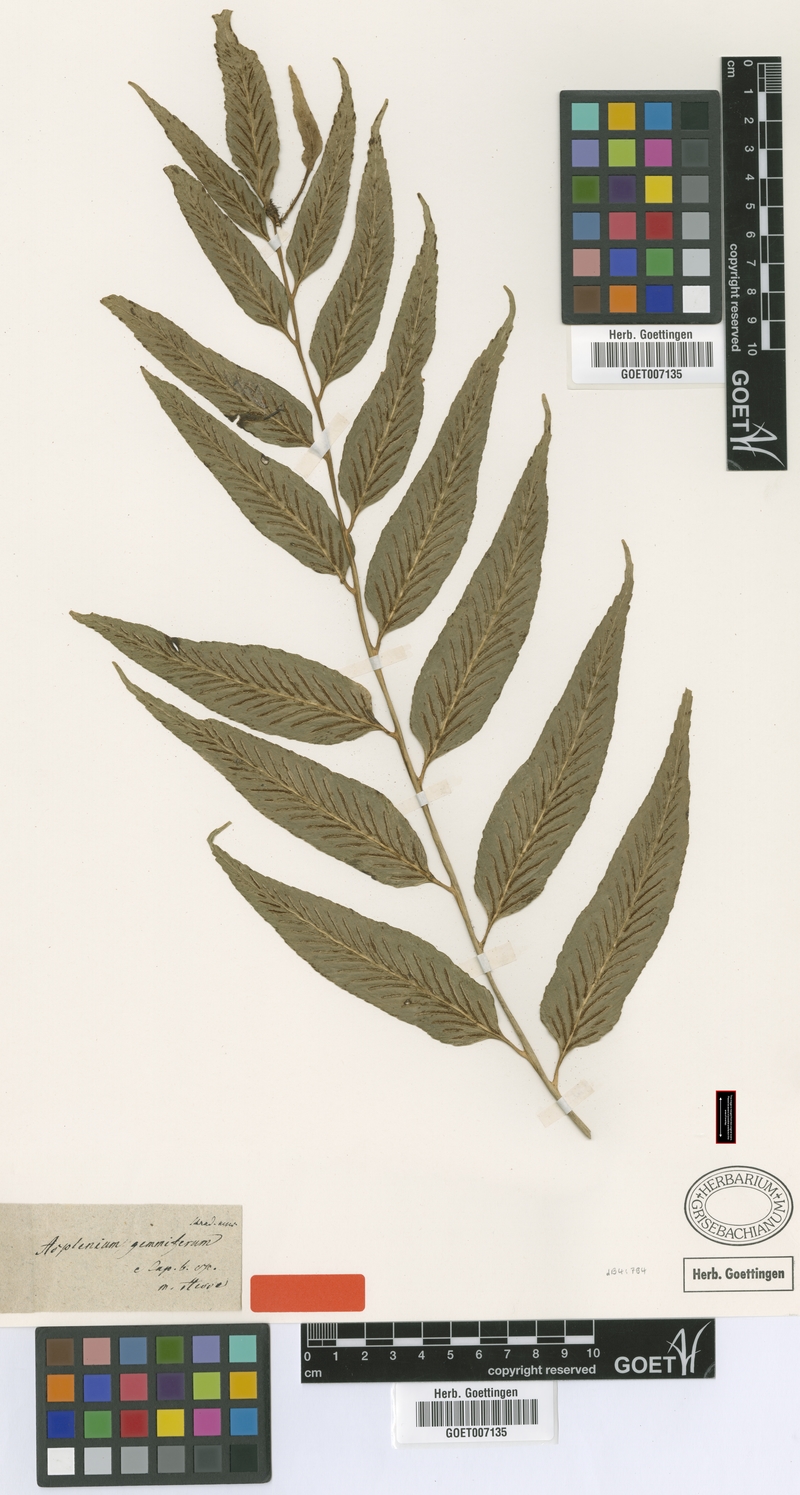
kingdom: Plantae
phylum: Tracheophyta
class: Polypodiopsida
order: Polypodiales
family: Aspleniaceae
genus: Asplenium
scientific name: Asplenium gemmiferum
